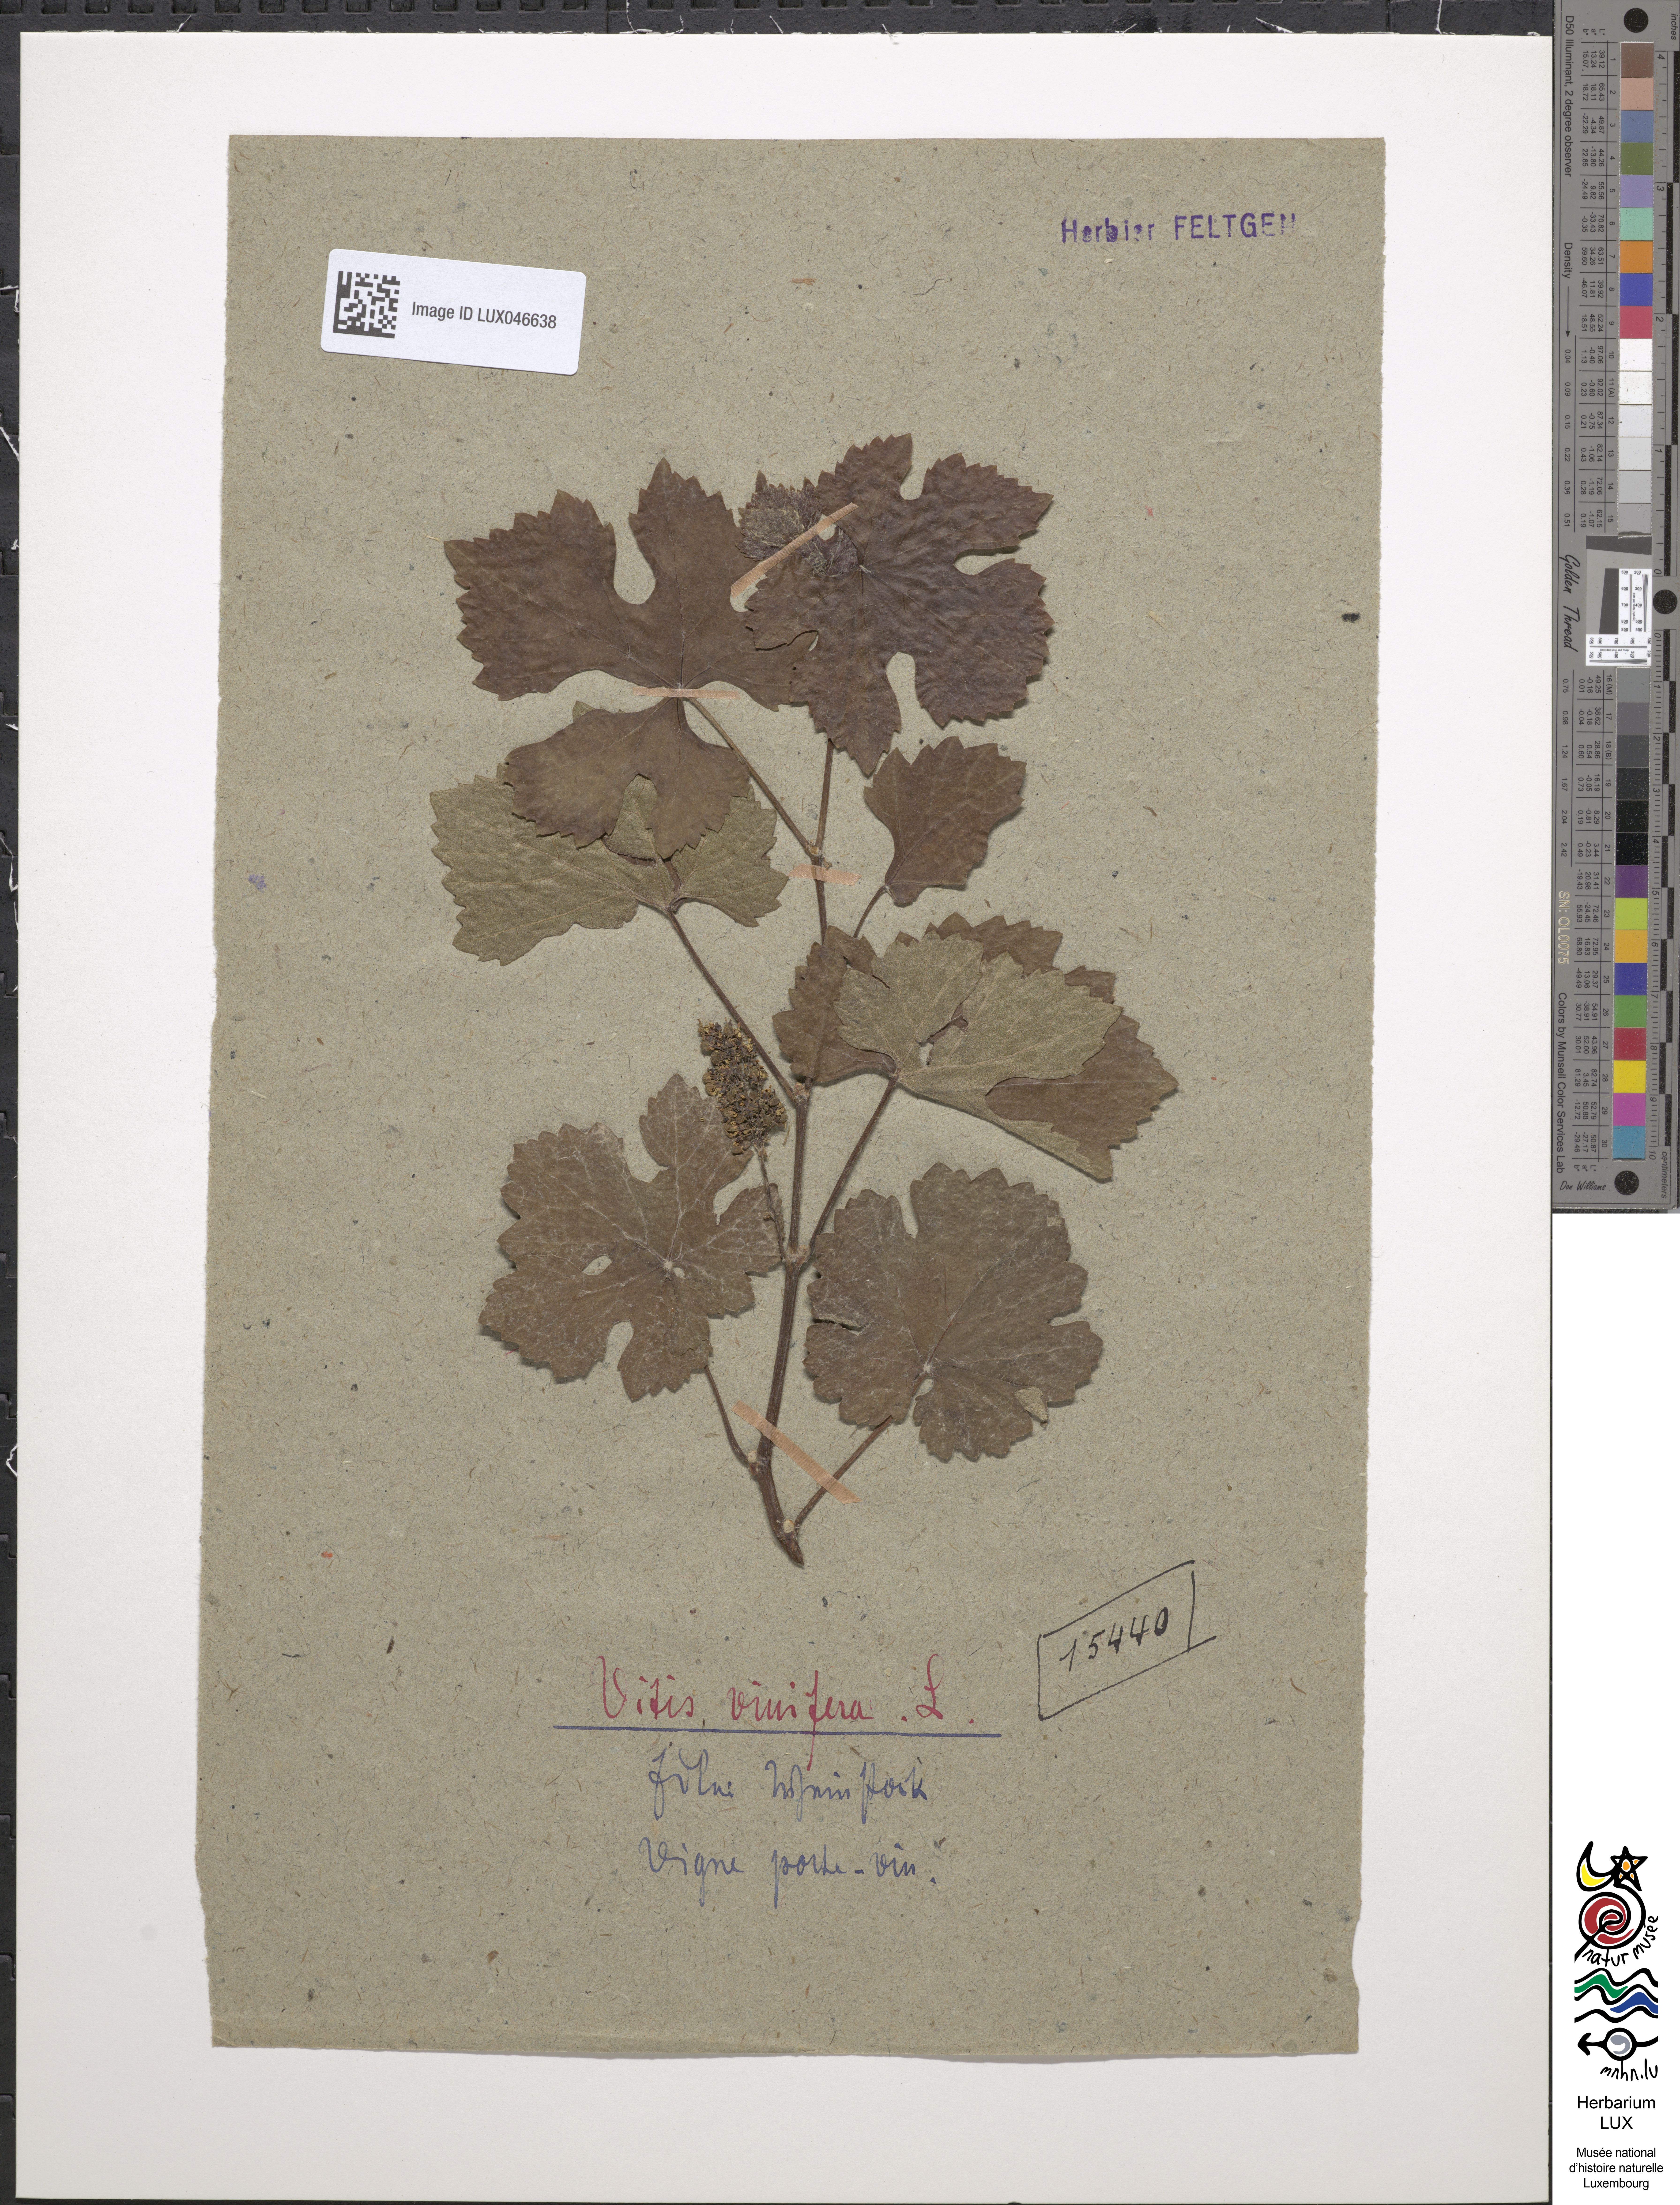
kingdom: Plantae
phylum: Tracheophyta
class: Magnoliopsida
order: Vitales
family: Vitaceae
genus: Vitis
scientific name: Vitis vinifera
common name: Grape-vine
